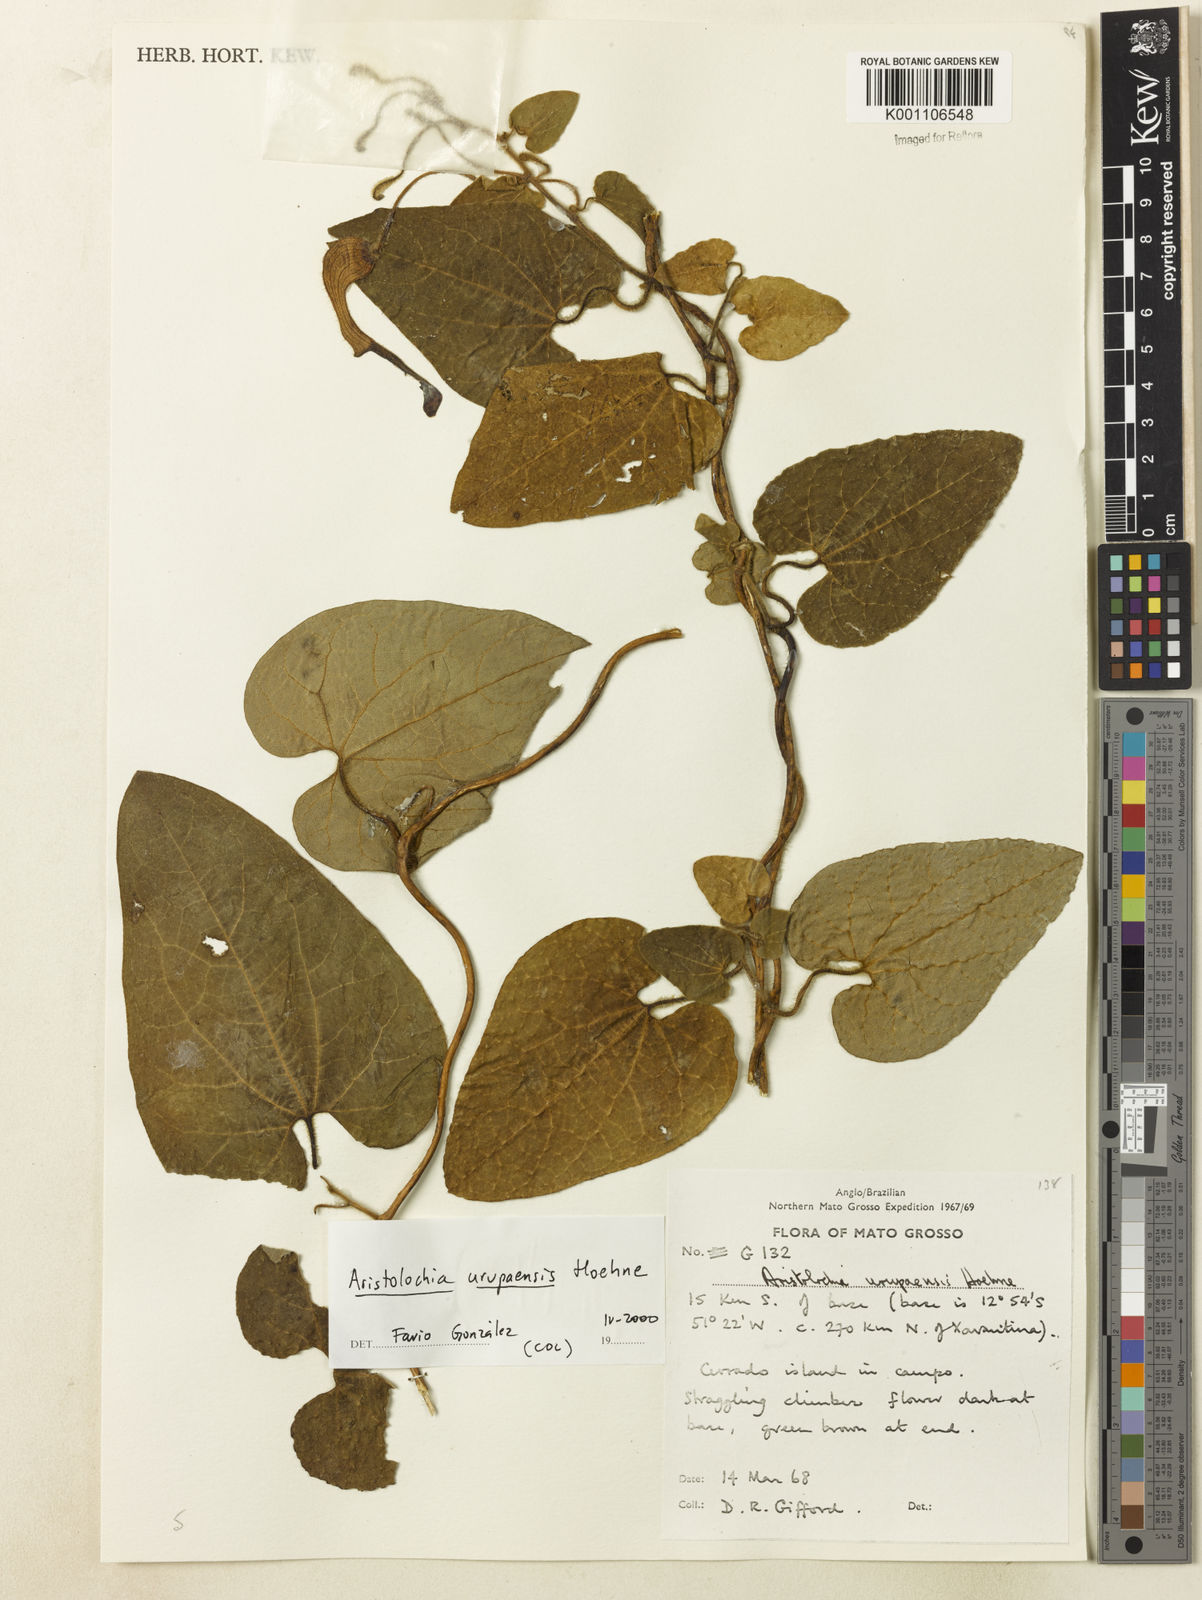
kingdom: Plantae
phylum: Tracheophyta
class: Magnoliopsida
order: Piperales
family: Aristolochiaceae
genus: Aristolochia
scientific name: Aristolochia urupaensis
